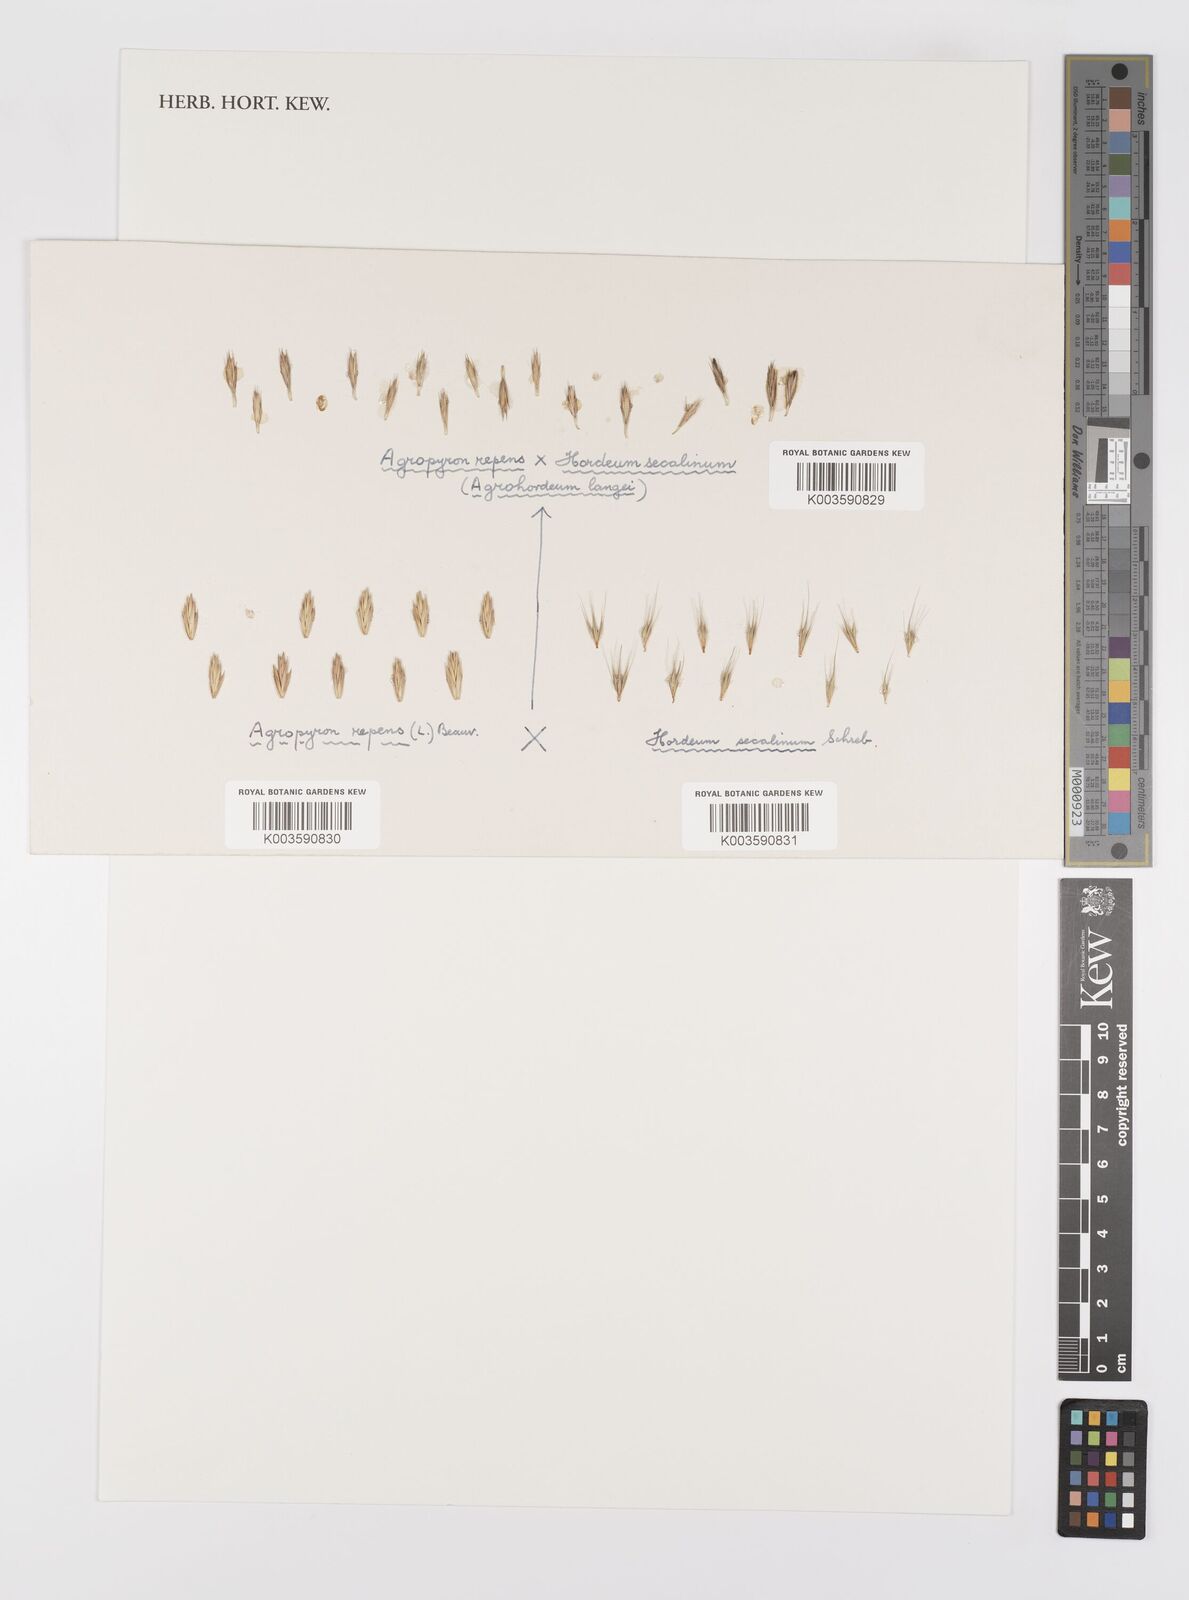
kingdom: Plantae
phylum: Tracheophyta
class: Liliopsida
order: Poales
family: Poaceae
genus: Elymus
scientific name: Elymus repens
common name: Quackgrass
